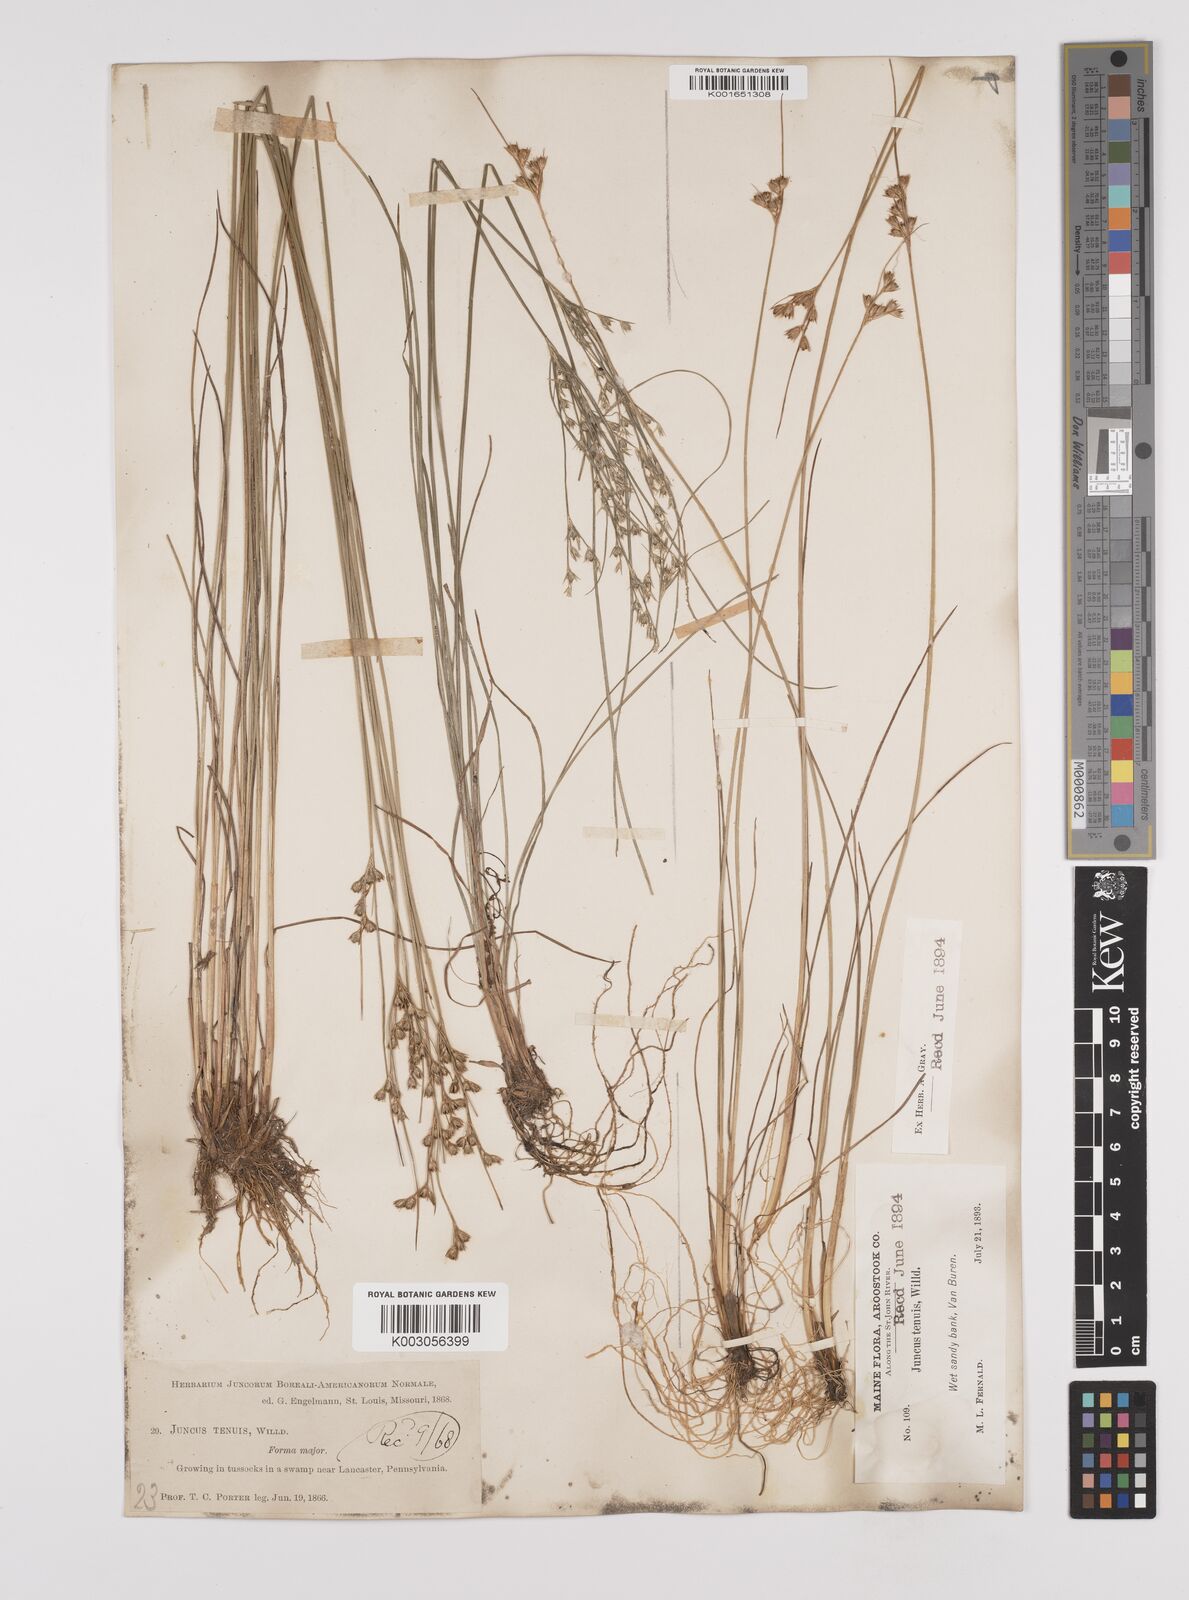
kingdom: Plantae
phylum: Tracheophyta
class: Liliopsida
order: Poales
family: Juncaceae
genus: Juncus
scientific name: Juncus tenuis
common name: Slender rush
